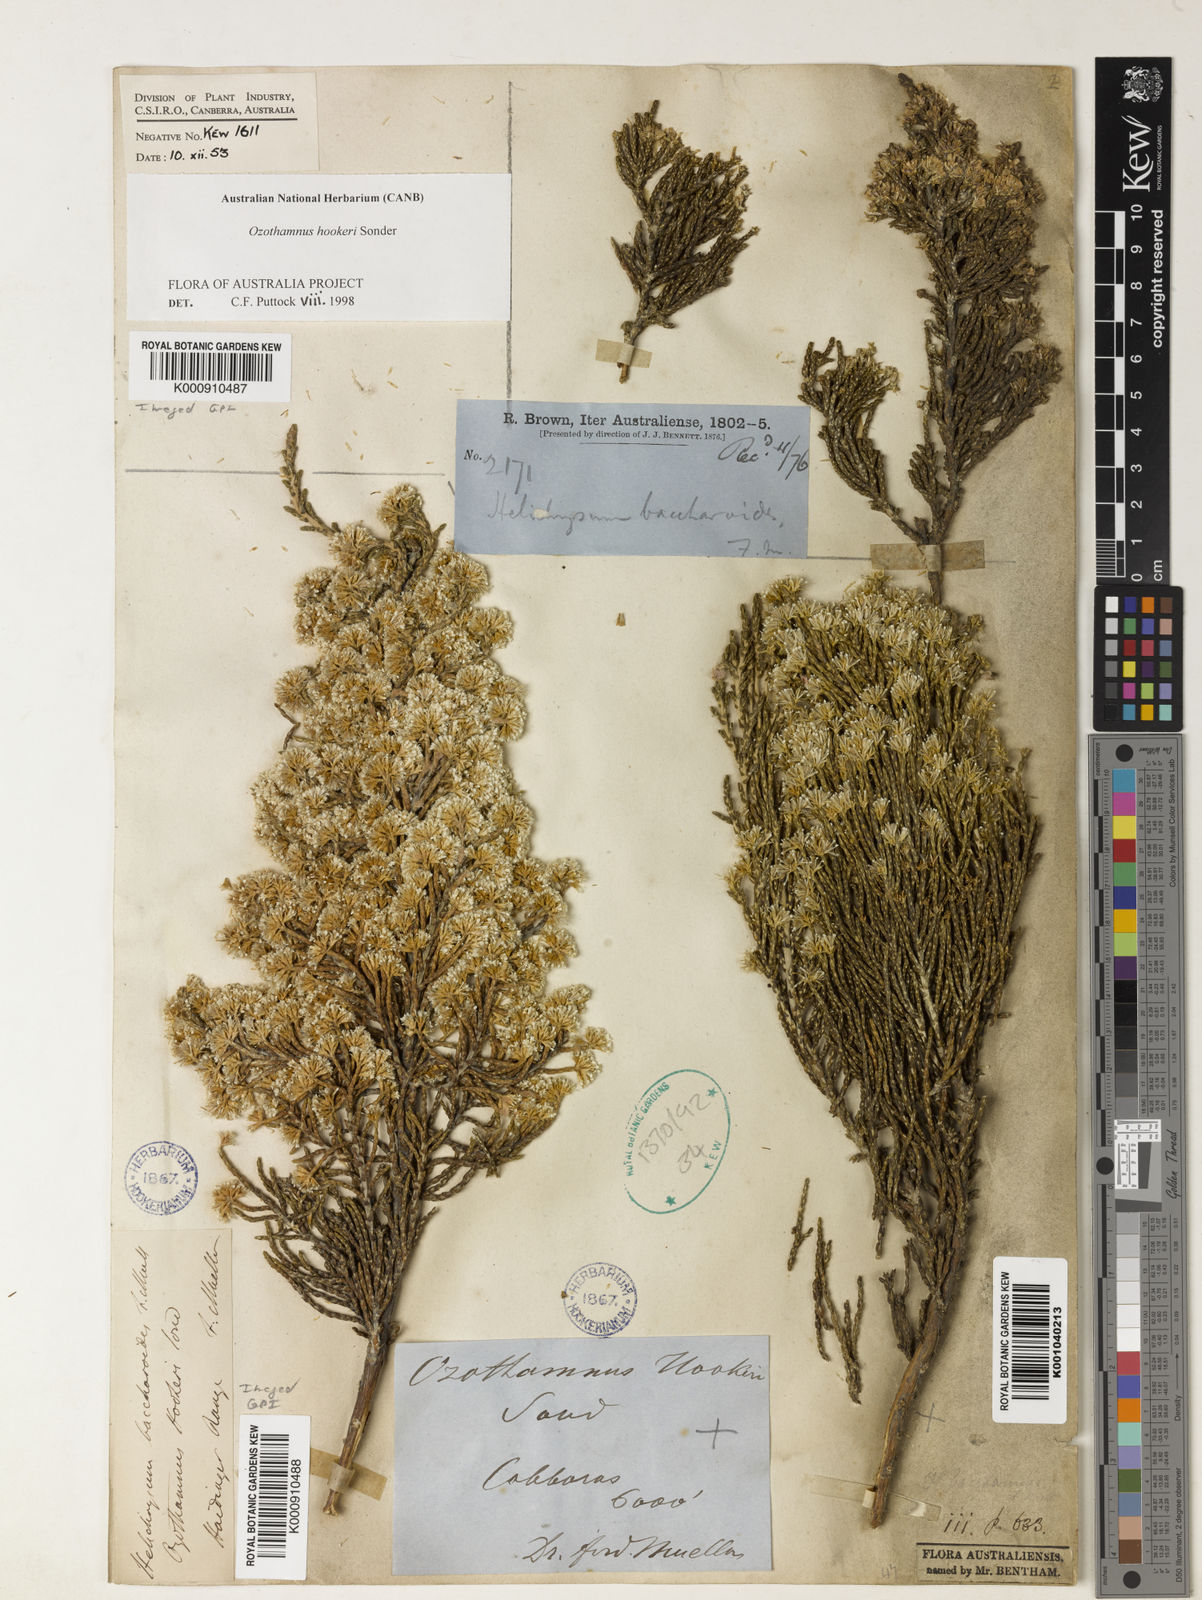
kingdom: Plantae
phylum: Tracheophyta
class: Magnoliopsida
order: Asterales
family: Asteraceae
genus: Ozothamnus
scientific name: Ozothamnus hookeri
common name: Kerosene-bush
